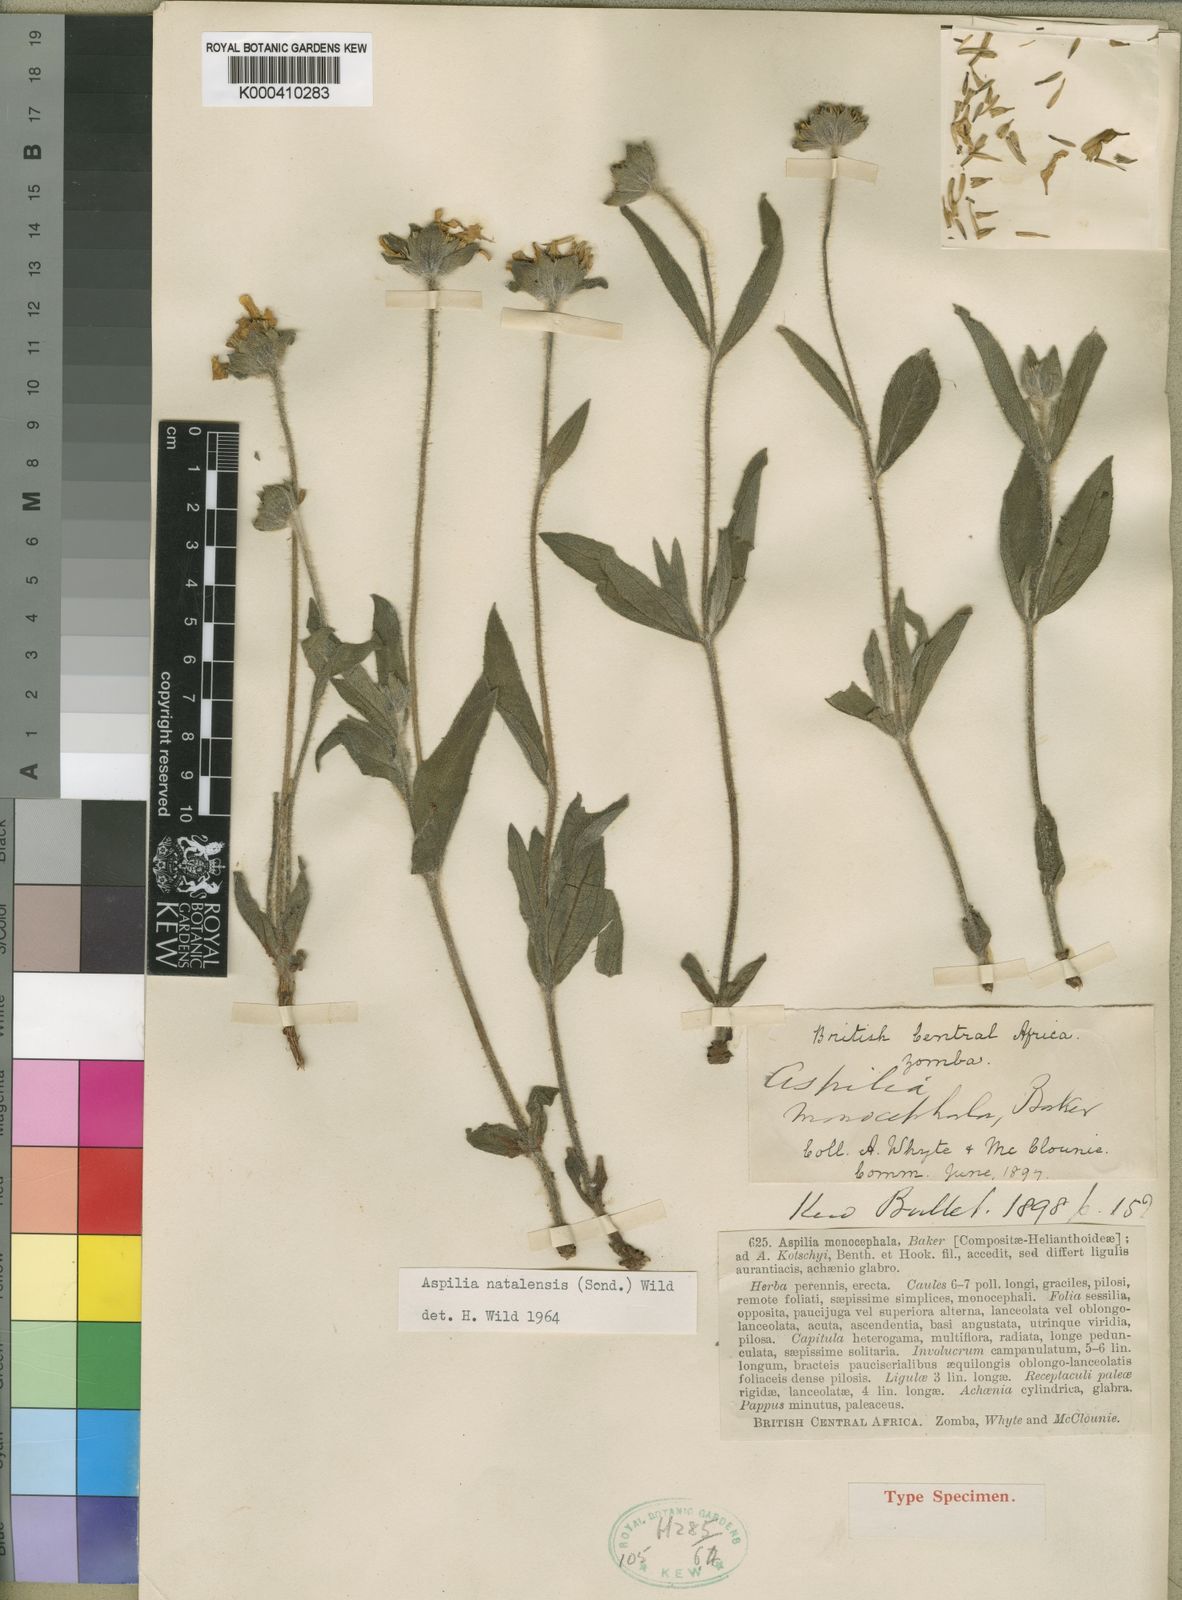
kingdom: Plantae
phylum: Tracheophyta
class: Magnoliopsida
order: Asterales
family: Asteraceae
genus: Aspilia
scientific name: Aspilia natalensis
